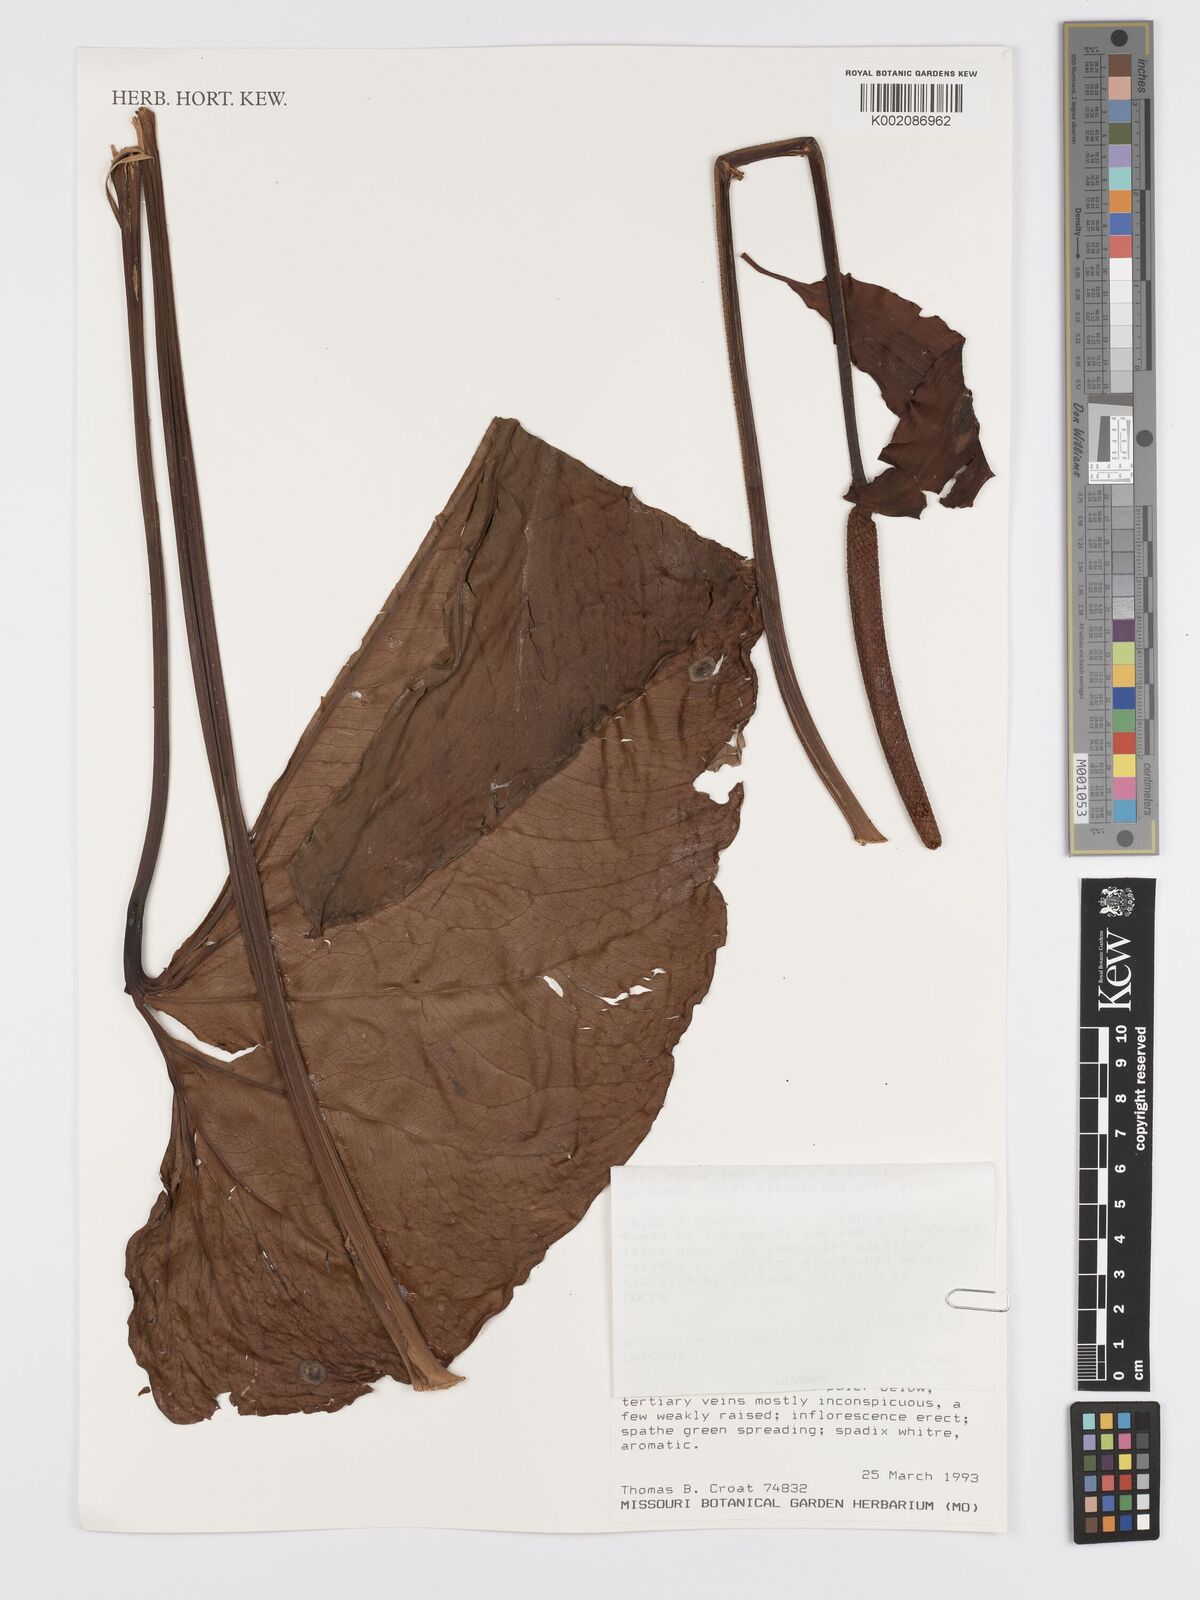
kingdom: Plantae
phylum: Tracheophyta
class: Liliopsida
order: Alismatales
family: Araceae
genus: Anthurium
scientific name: Anthurium sanctifidense
